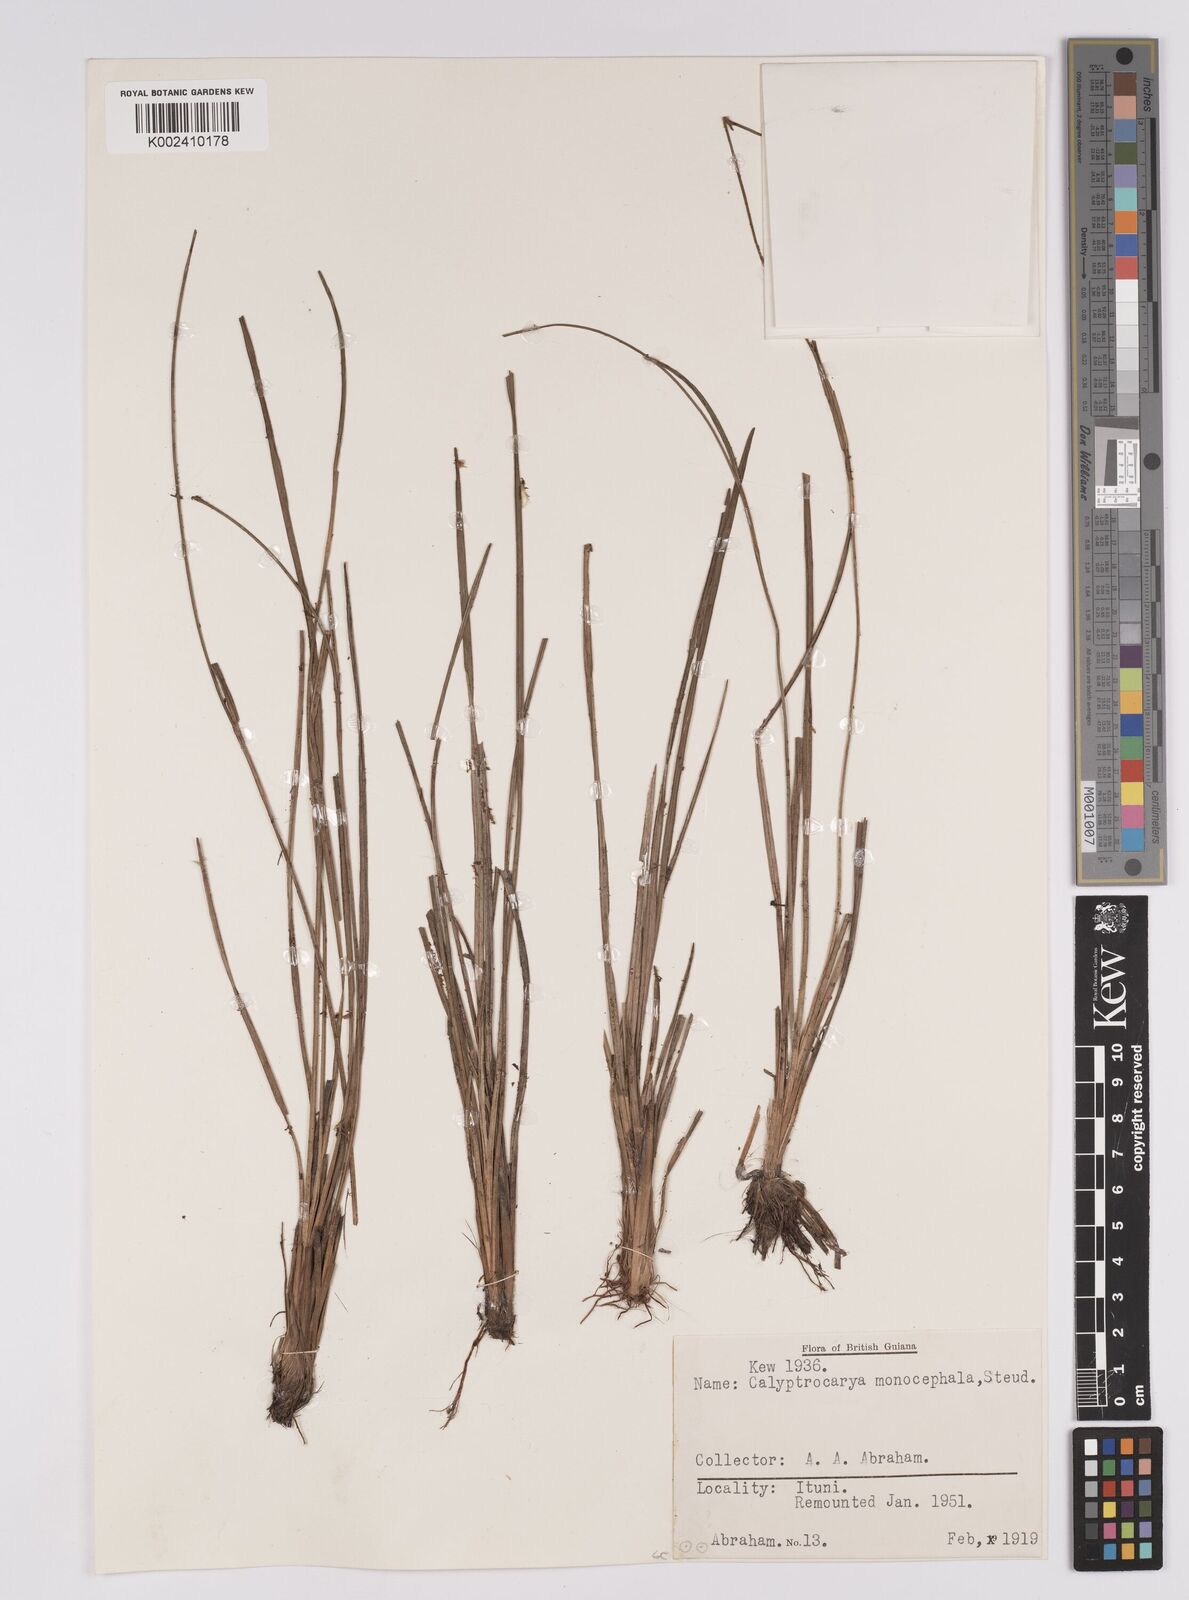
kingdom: Plantae
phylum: Tracheophyta
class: Liliopsida
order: Poales
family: Cyperaceae
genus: Calyptrocarya
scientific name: Calyptrocarya monocephala
